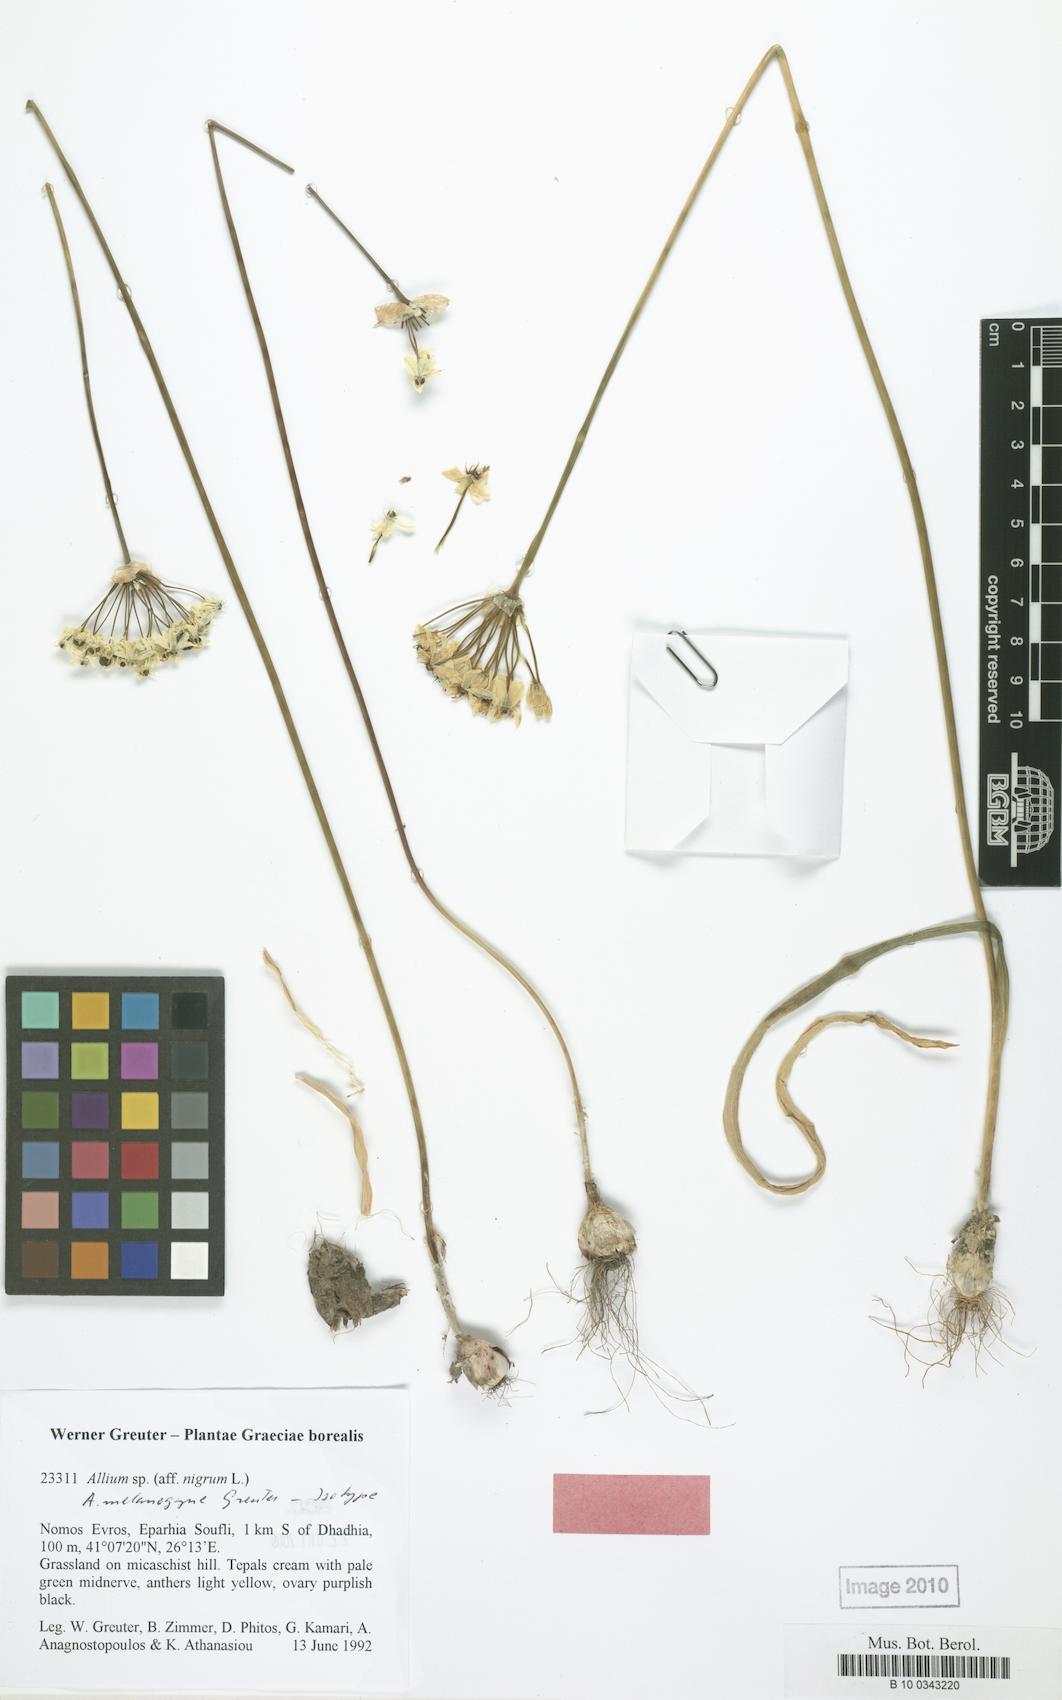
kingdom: Plantae
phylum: Tracheophyta
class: Liliopsida
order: Asparagales
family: Amaryllidaceae
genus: Allium
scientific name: Allium melanogyne
